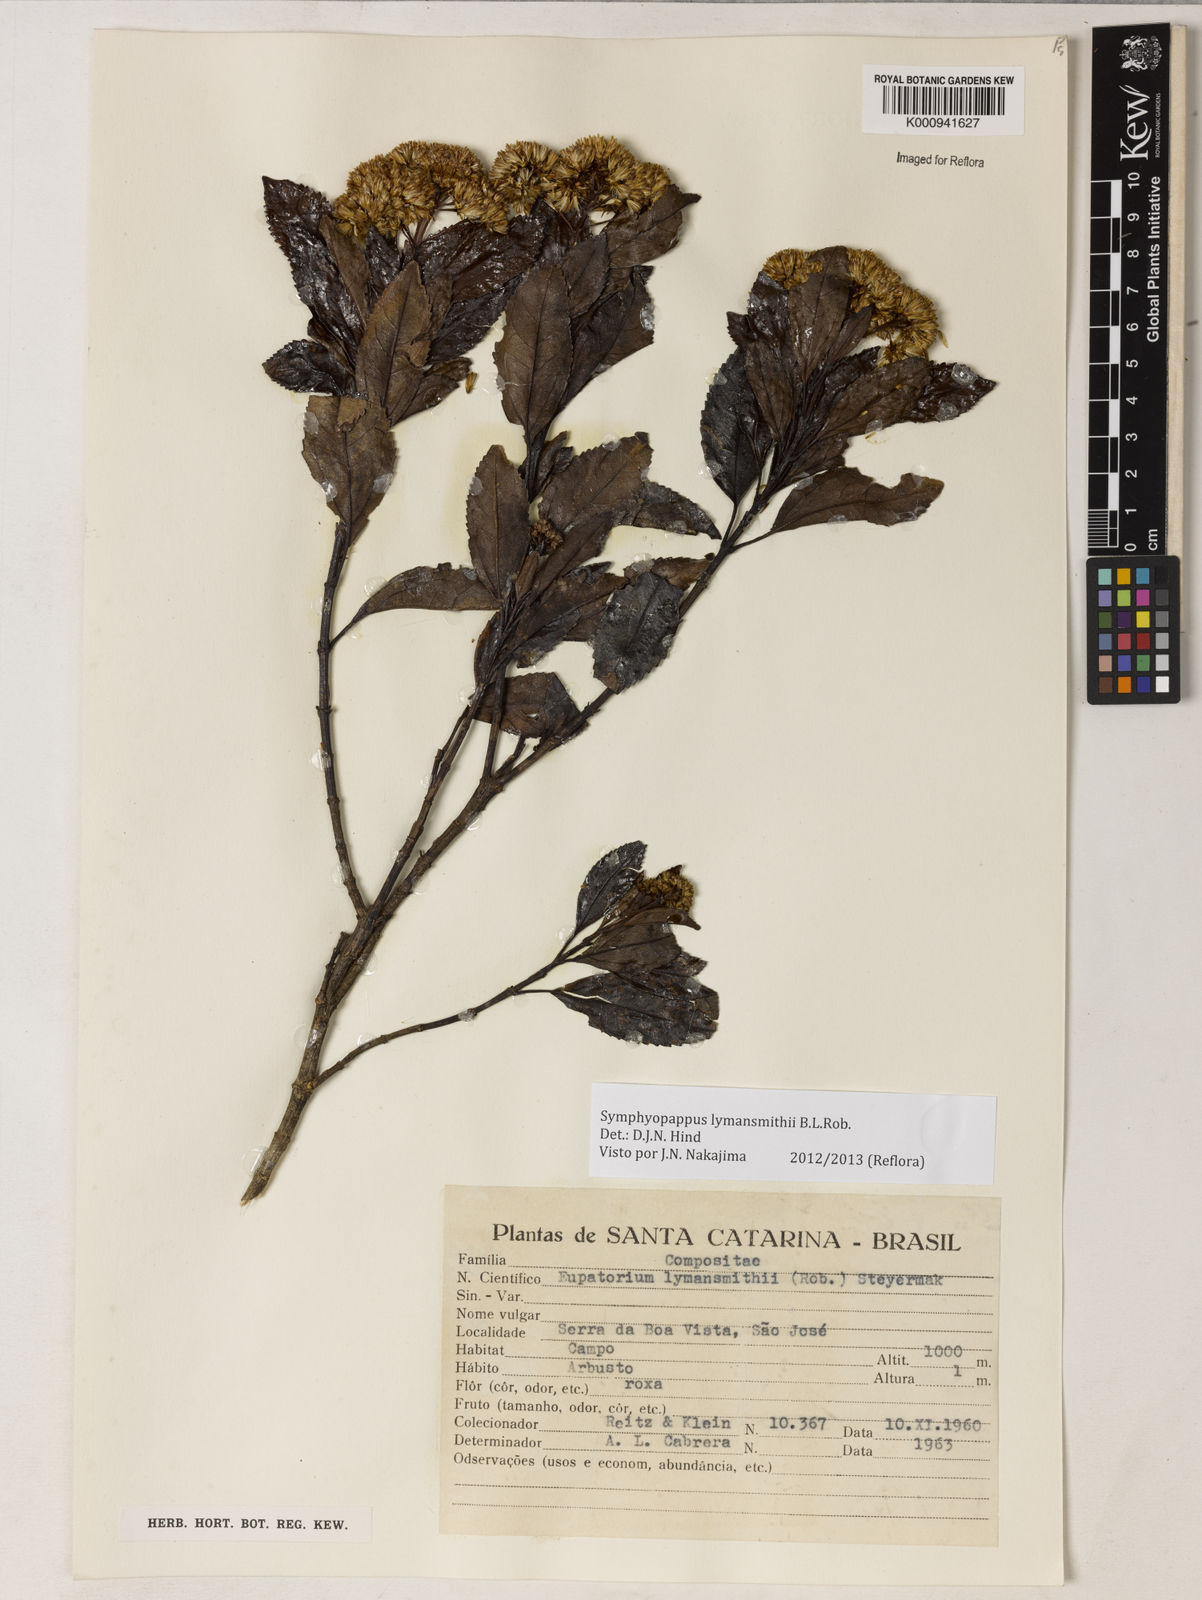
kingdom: Plantae
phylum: Tracheophyta
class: Magnoliopsida
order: Asterales
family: Asteraceae
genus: Symphyopappus
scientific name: Symphyopappus lymansmithii
